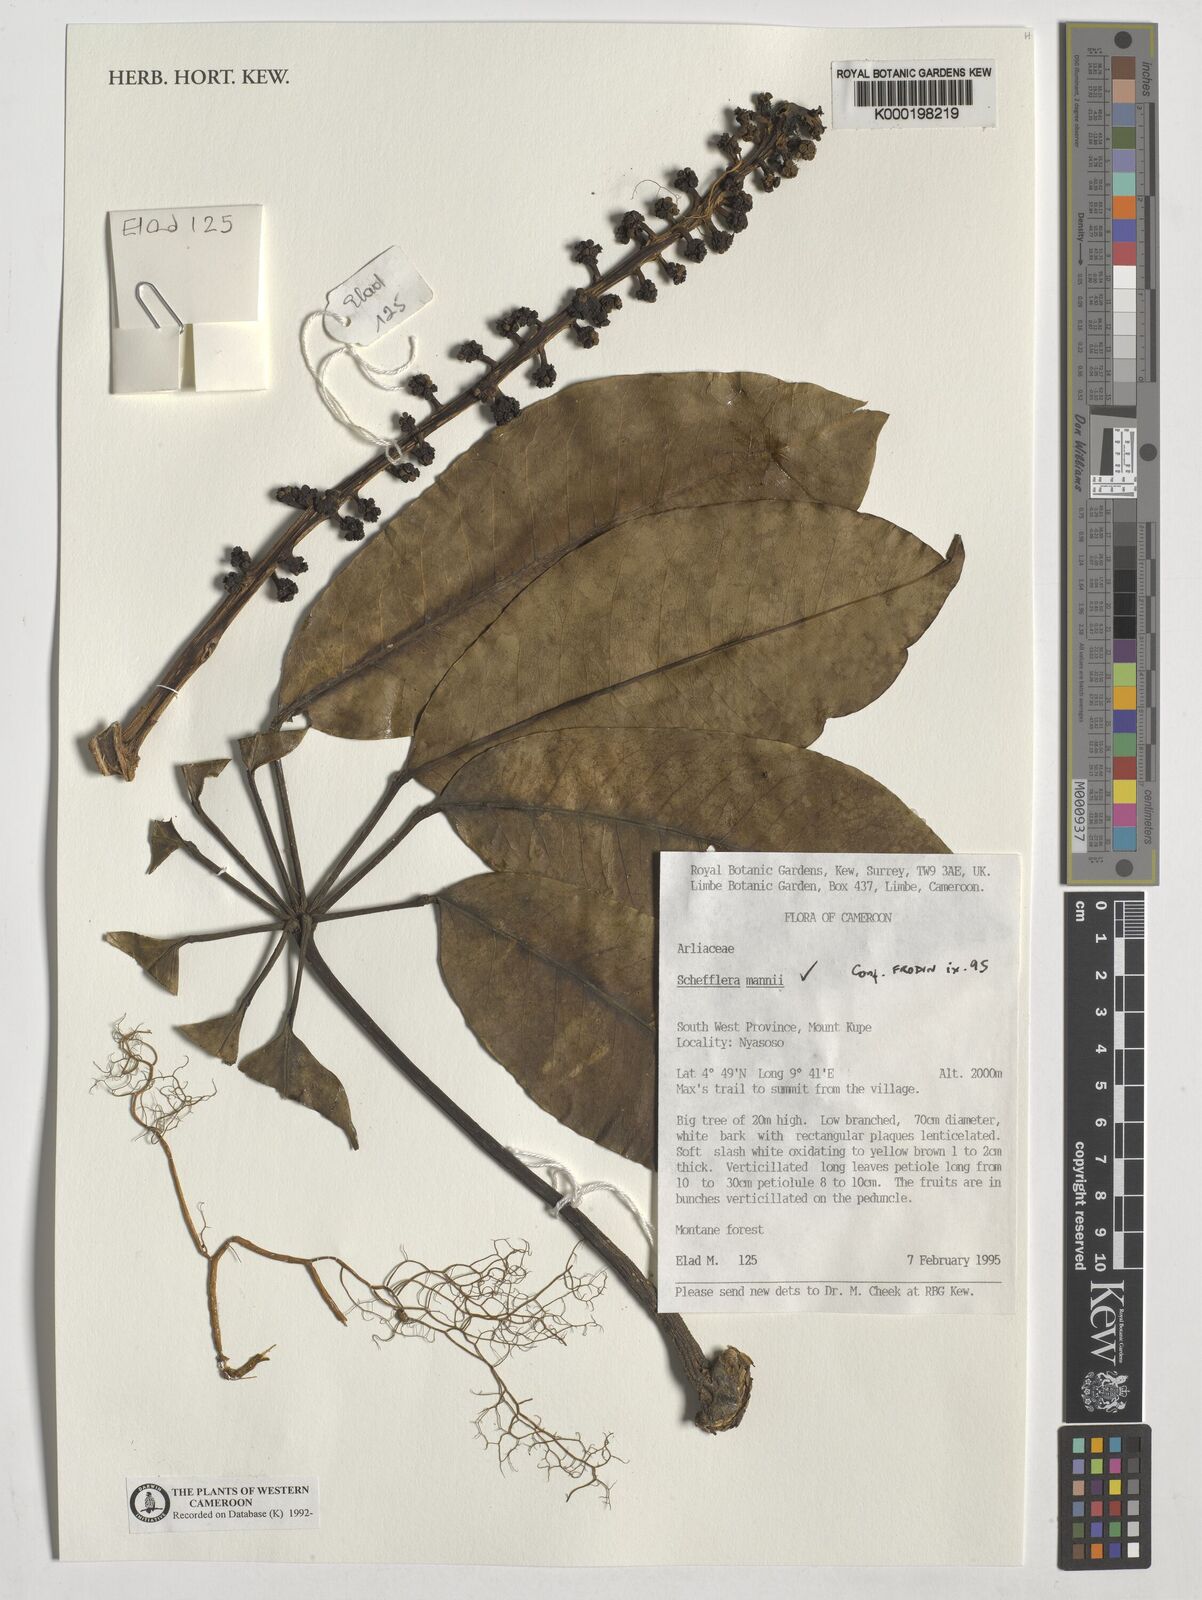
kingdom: Plantae
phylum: Tracheophyta
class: Magnoliopsida
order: Apiales
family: Araliaceae
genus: Astropanax
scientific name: Astropanax mannii
